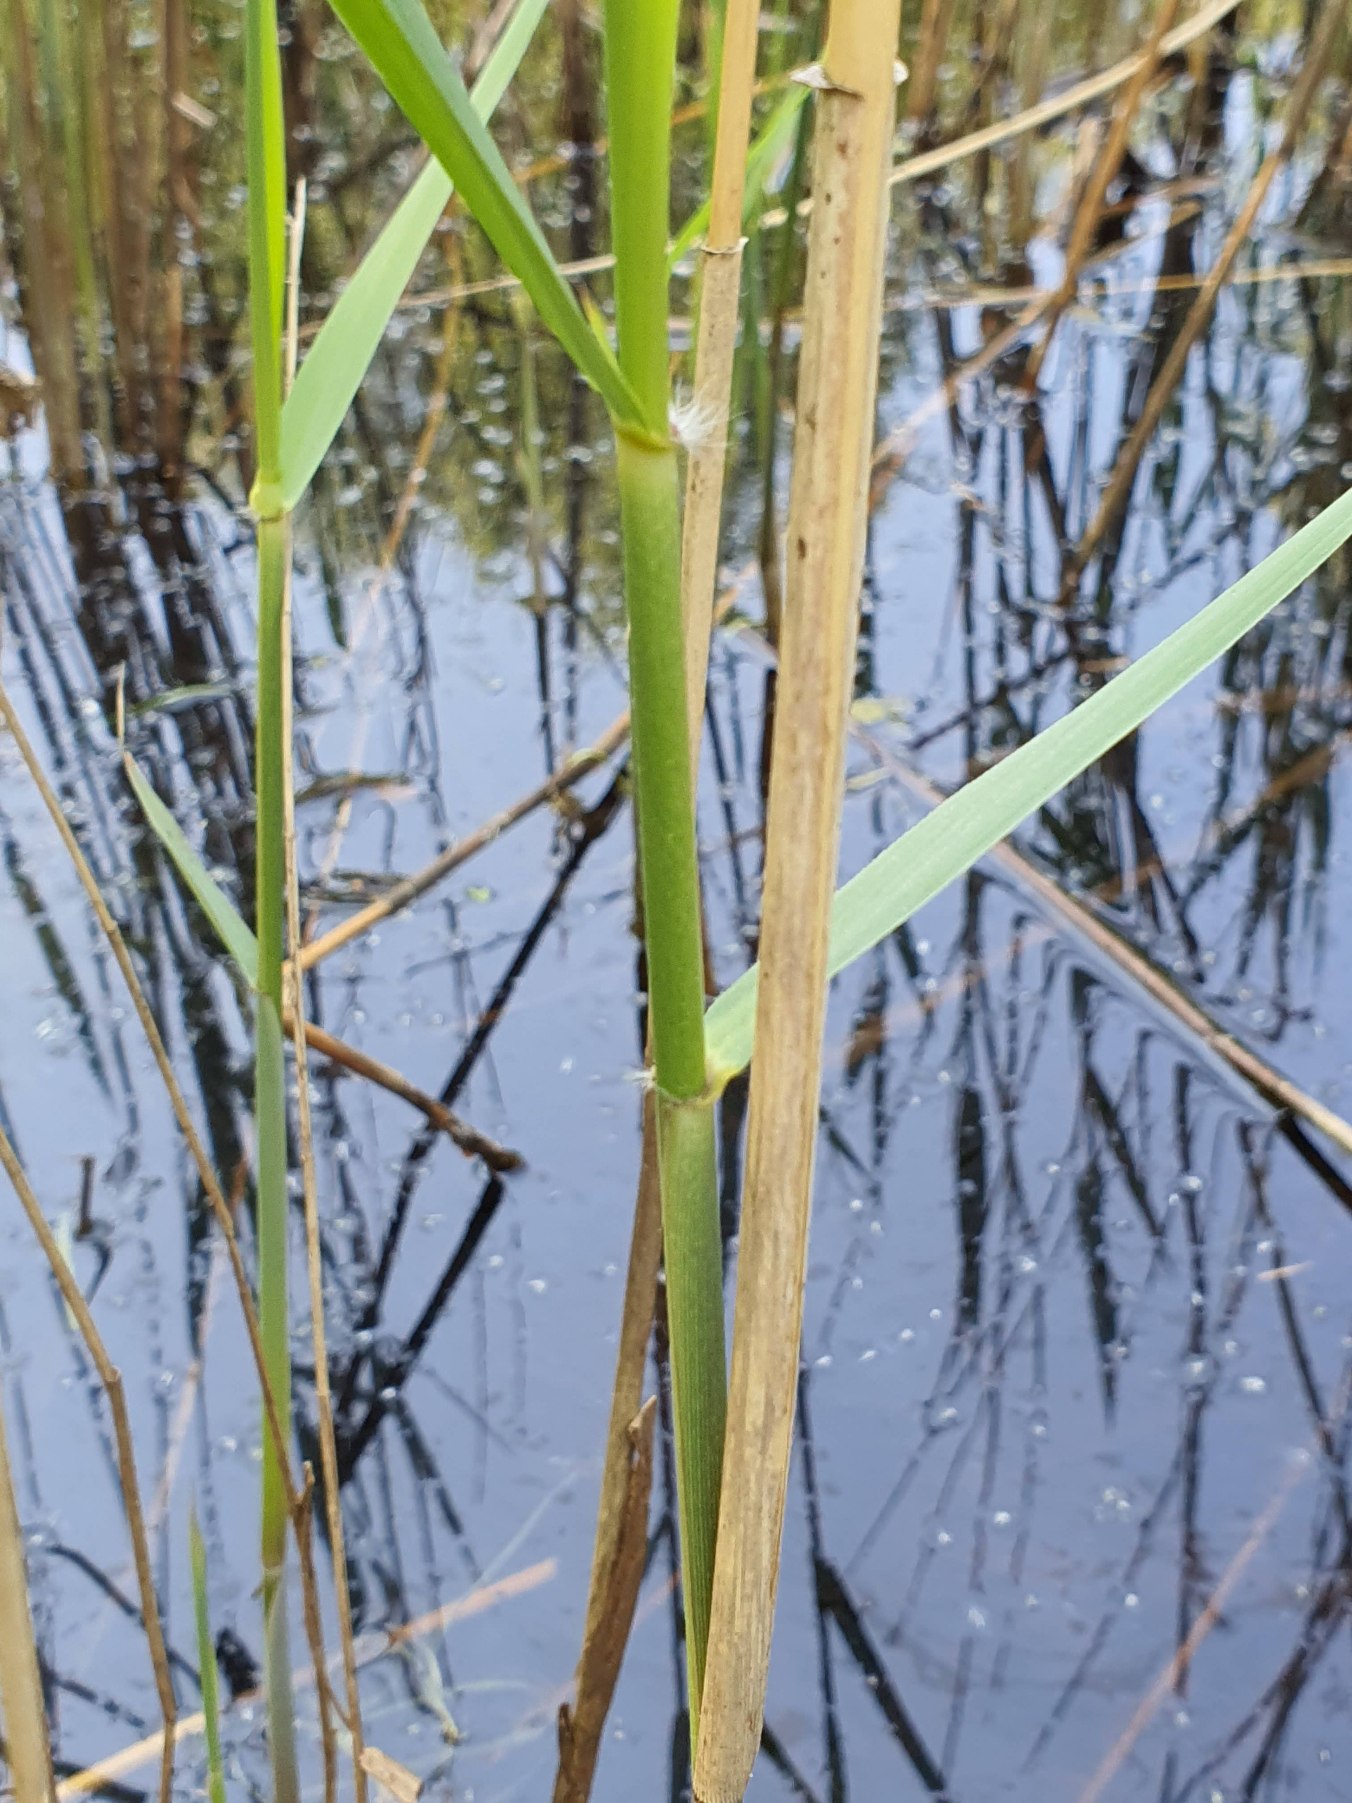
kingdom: Plantae
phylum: Tracheophyta
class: Liliopsida
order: Poales
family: Poaceae
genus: Phragmites
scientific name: Phragmites australis
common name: Tagrør
